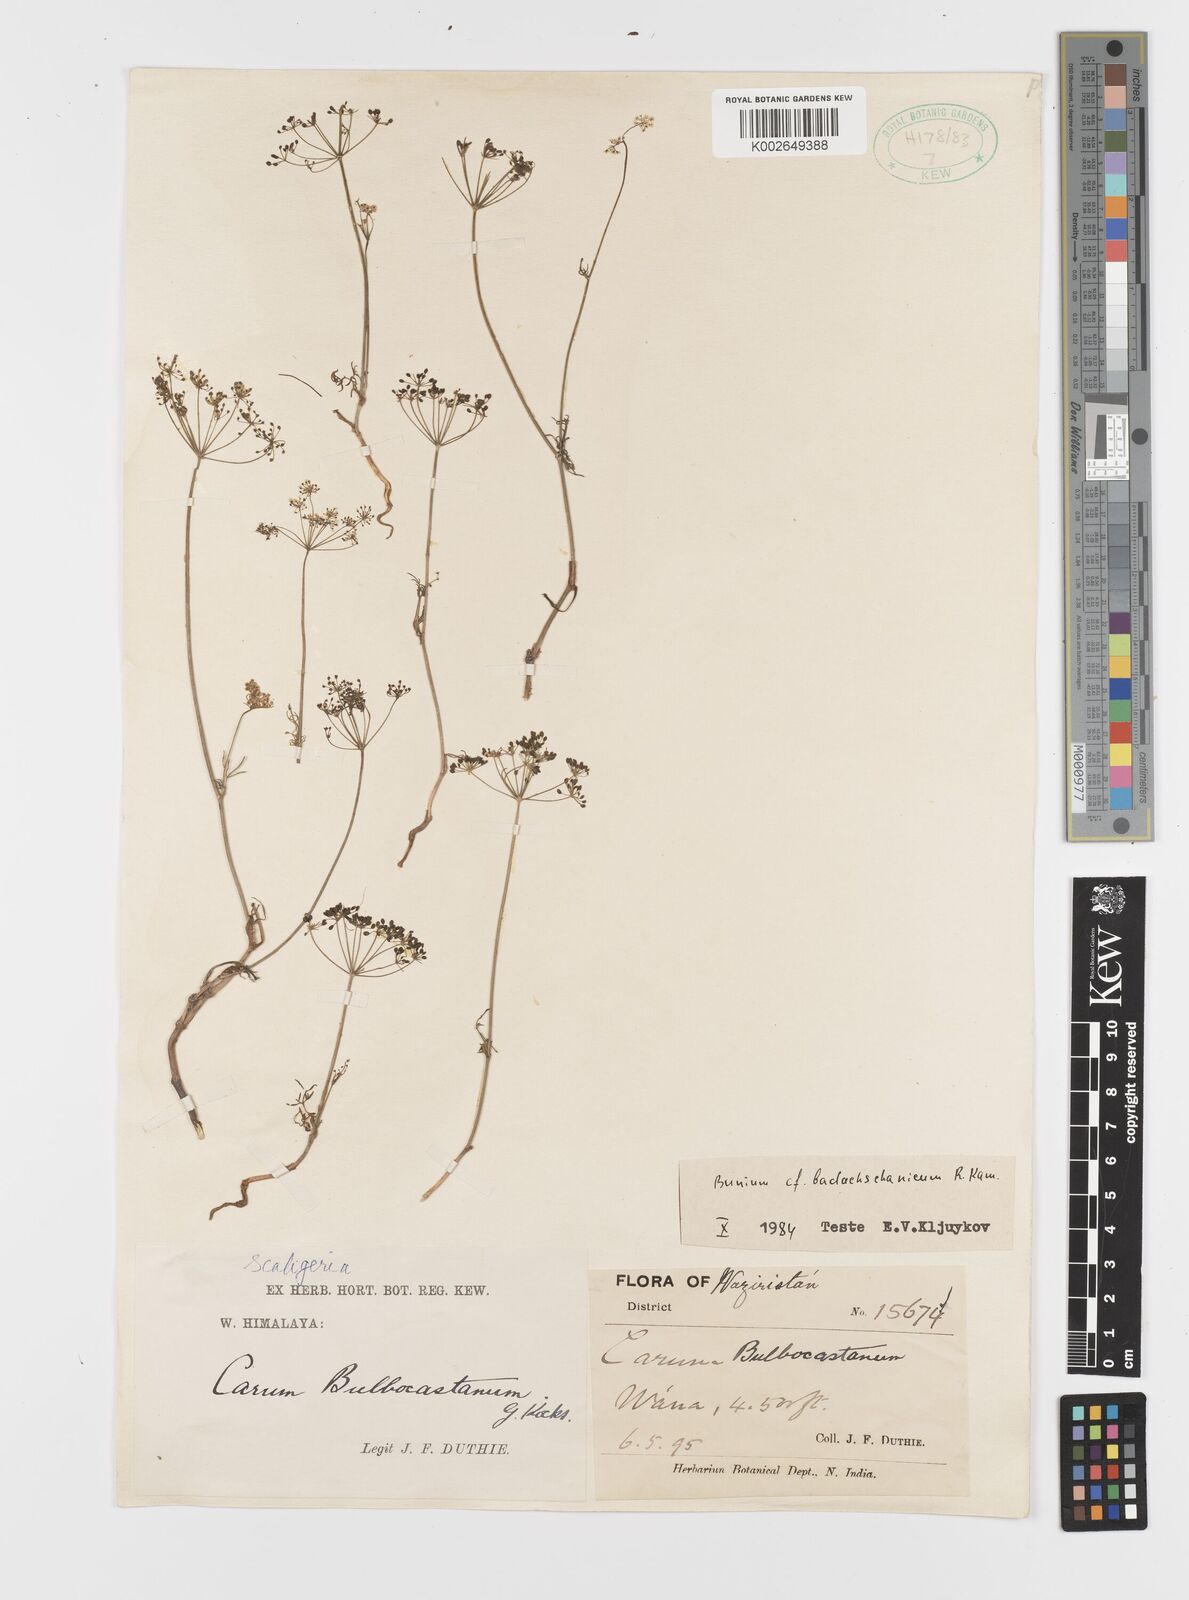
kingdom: Plantae
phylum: Tracheophyta
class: Magnoliopsida
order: Apiales
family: Apiaceae
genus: Elwendia
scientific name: Elwendia badachschanica
